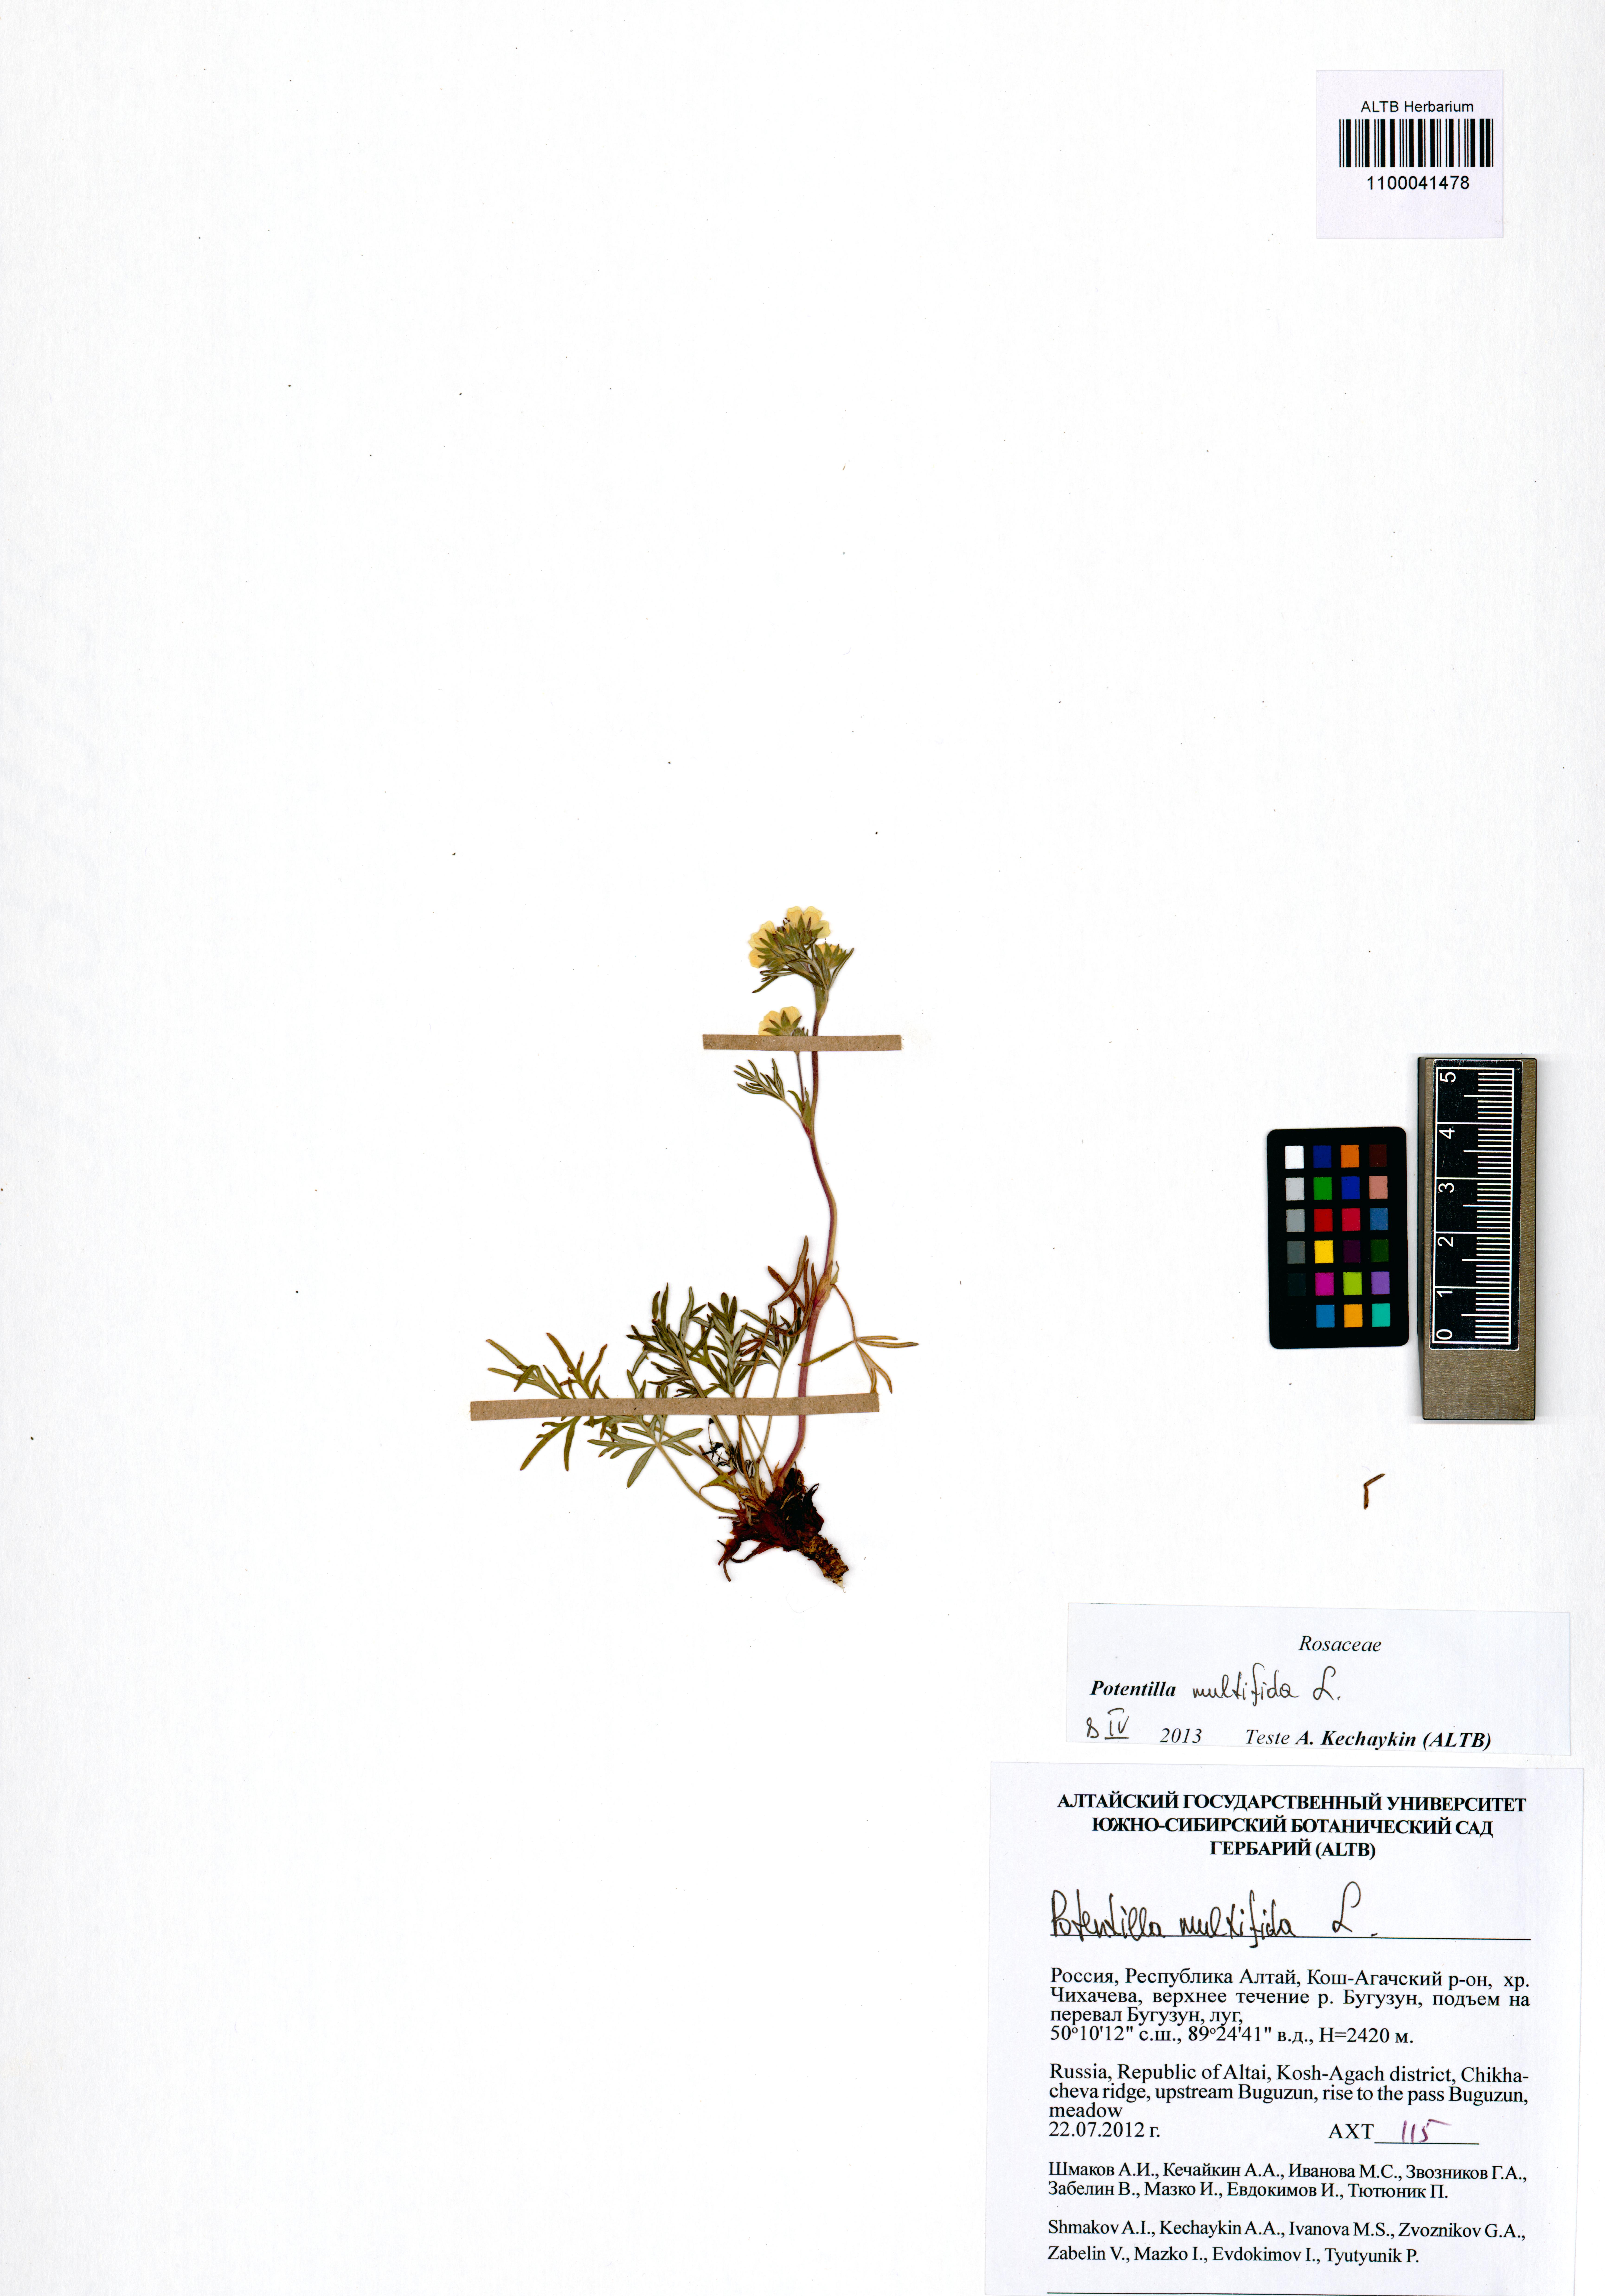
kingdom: Plantae
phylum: Tracheophyta
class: Magnoliopsida
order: Rosales
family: Rosaceae
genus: Potentilla
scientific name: Potentilla multifida
